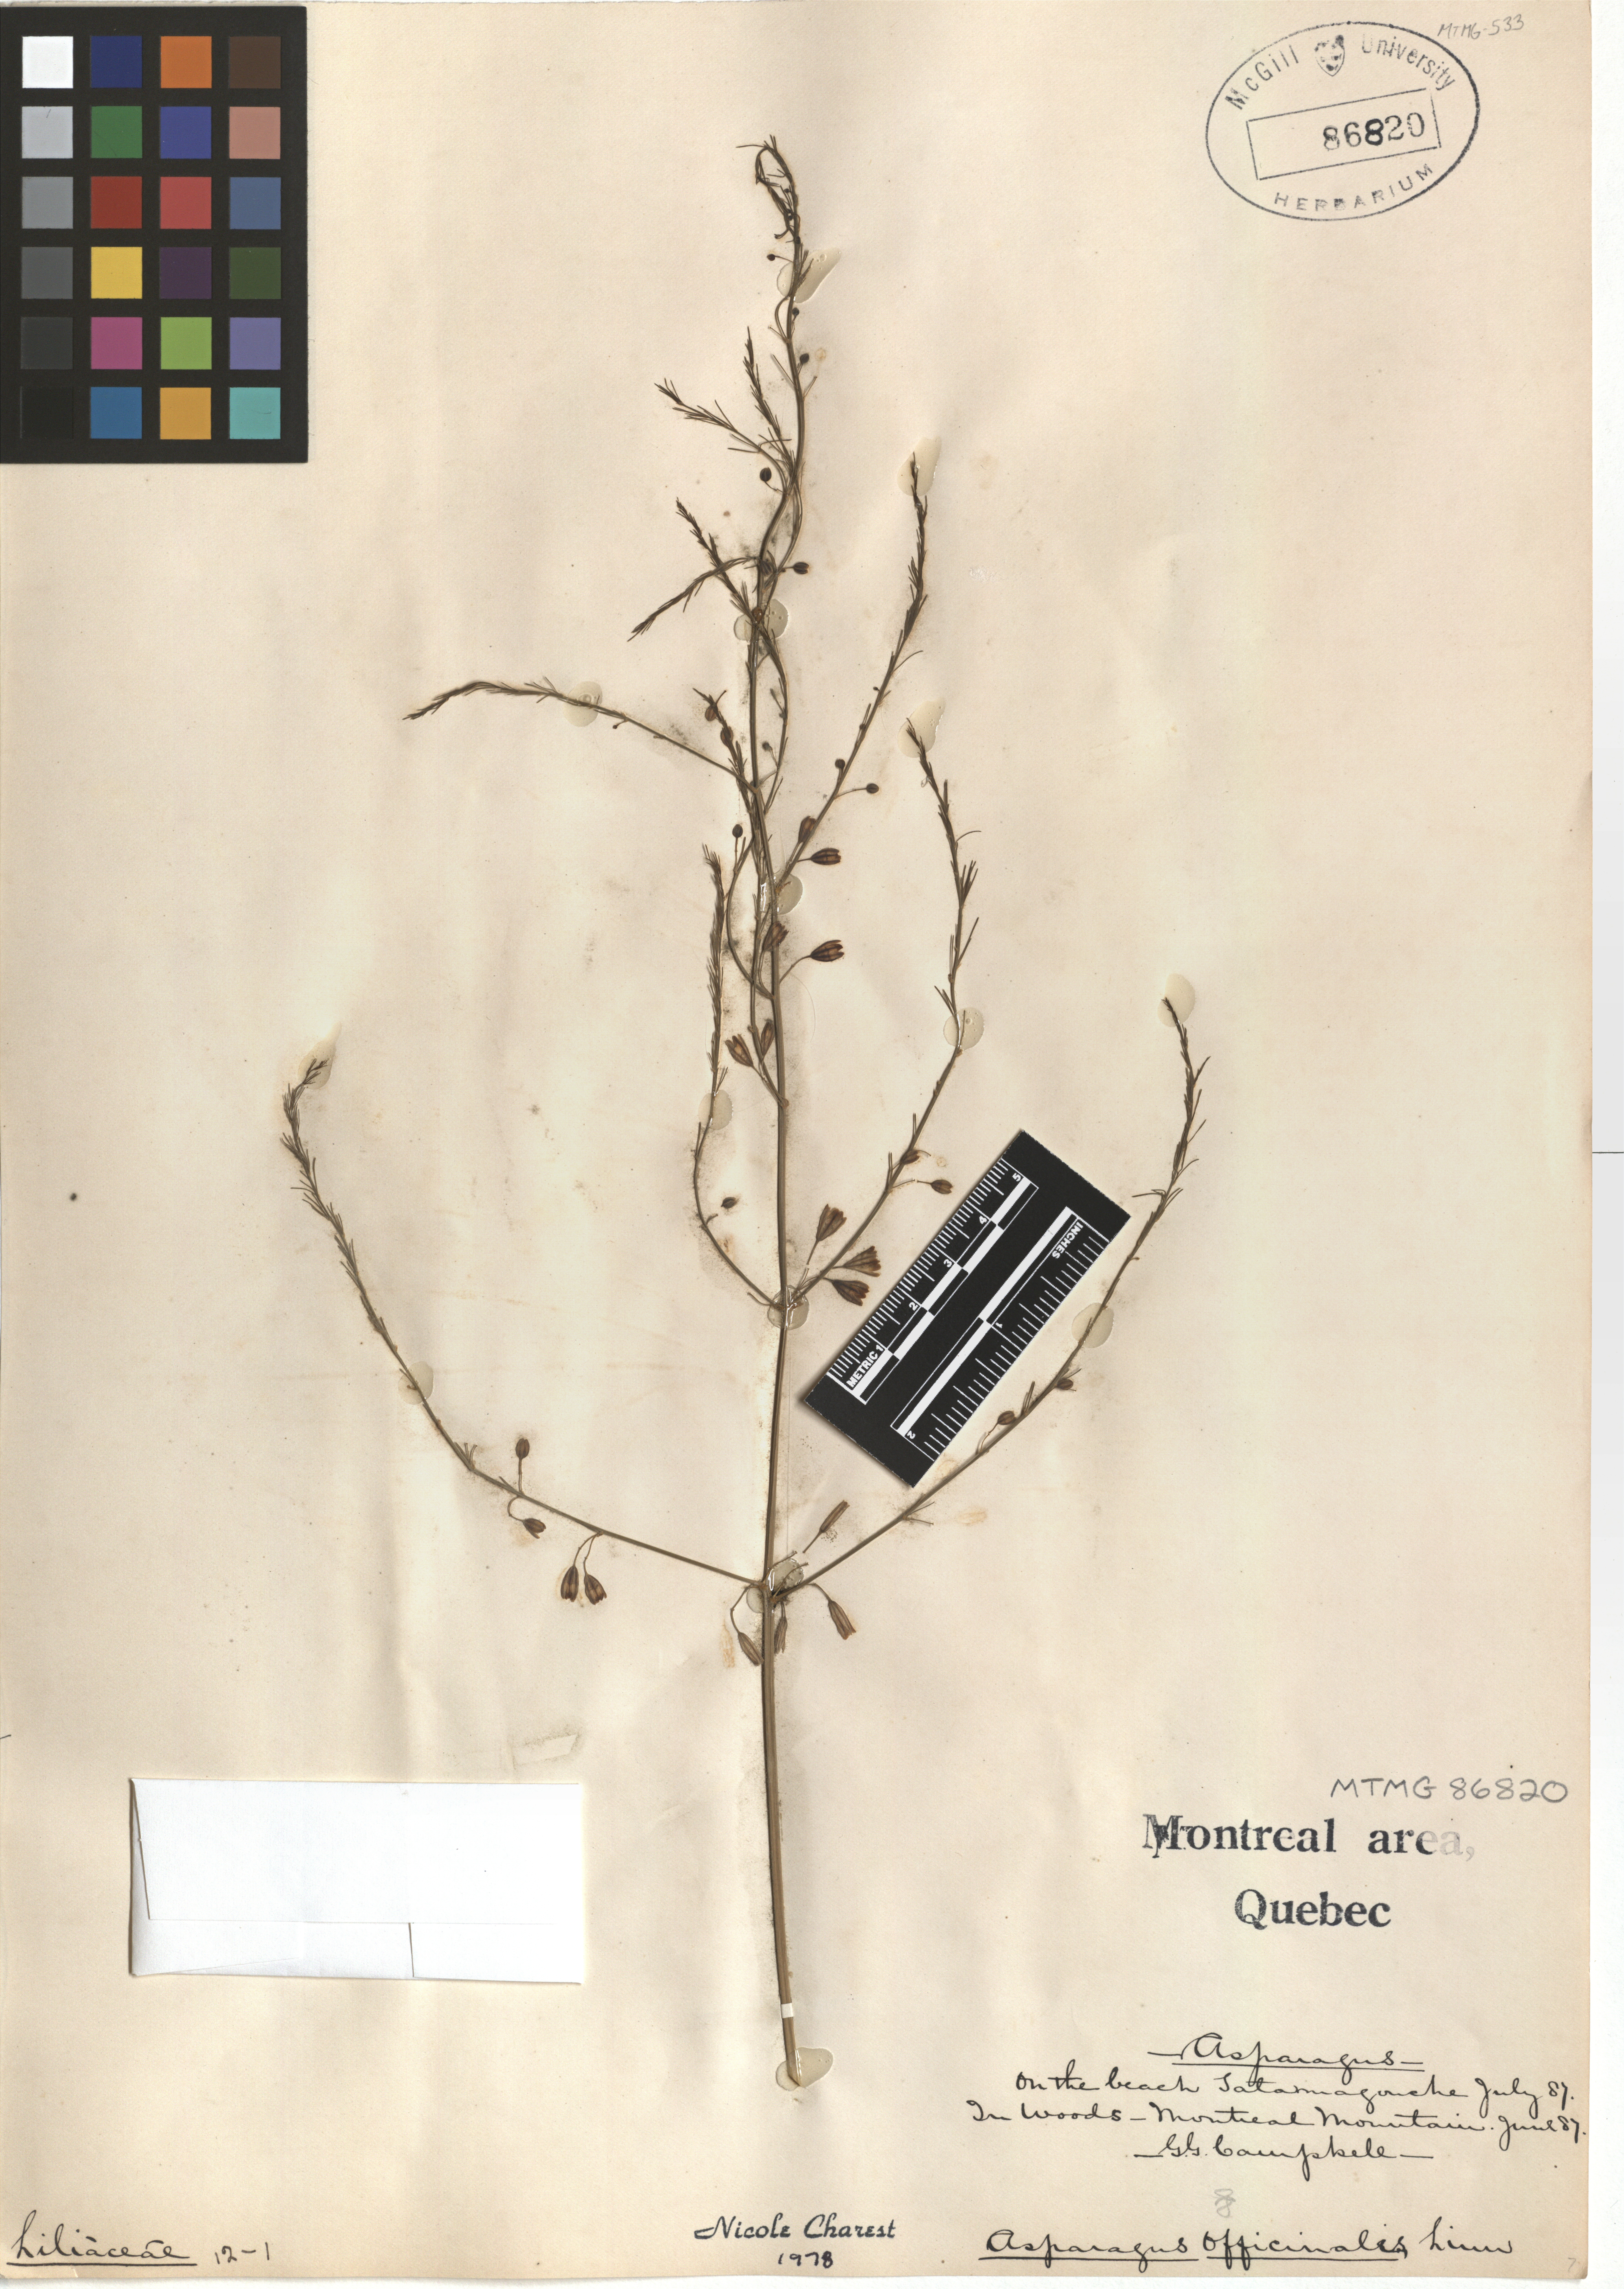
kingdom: Plantae
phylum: Tracheophyta
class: Liliopsida
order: Asparagales
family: Asparagaceae
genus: Asparagus
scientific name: Asparagus officinalis
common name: Garden asparagus
